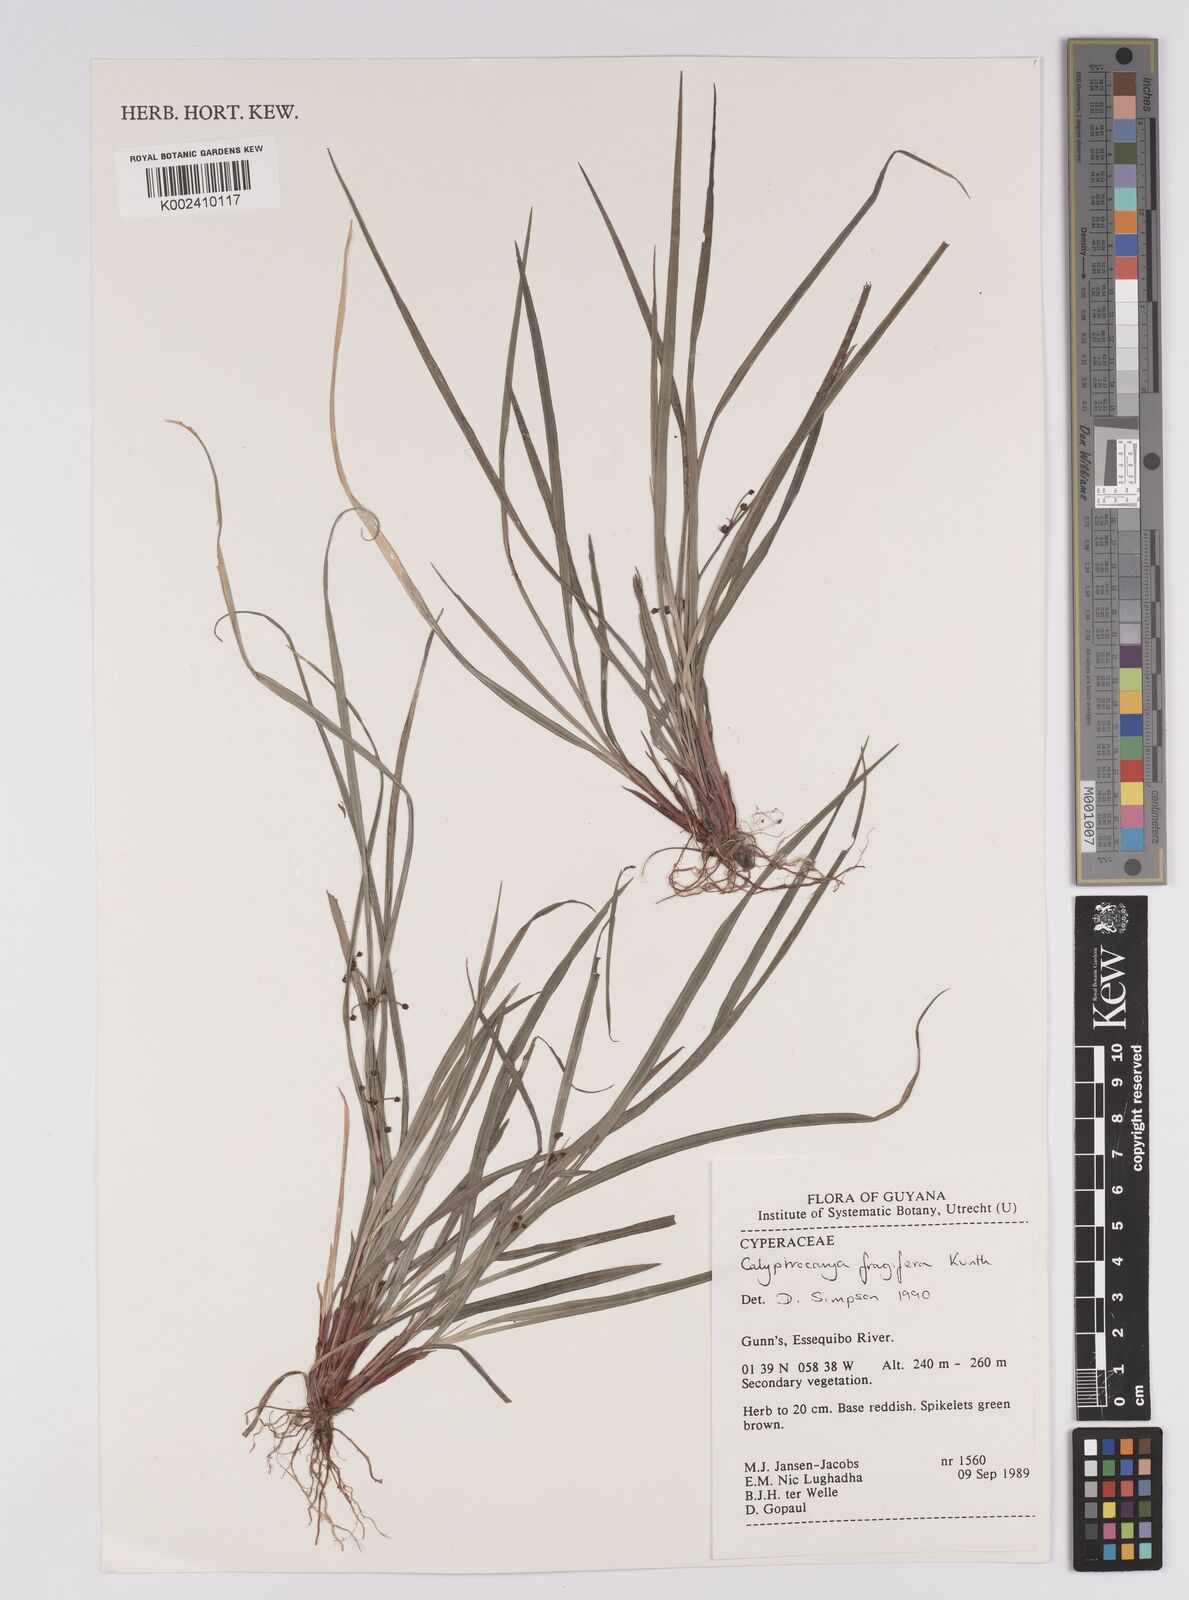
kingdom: Plantae
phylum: Tracheophyta
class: Liliopsida
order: Poales
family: Cyperaceae
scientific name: Cyperaceae
